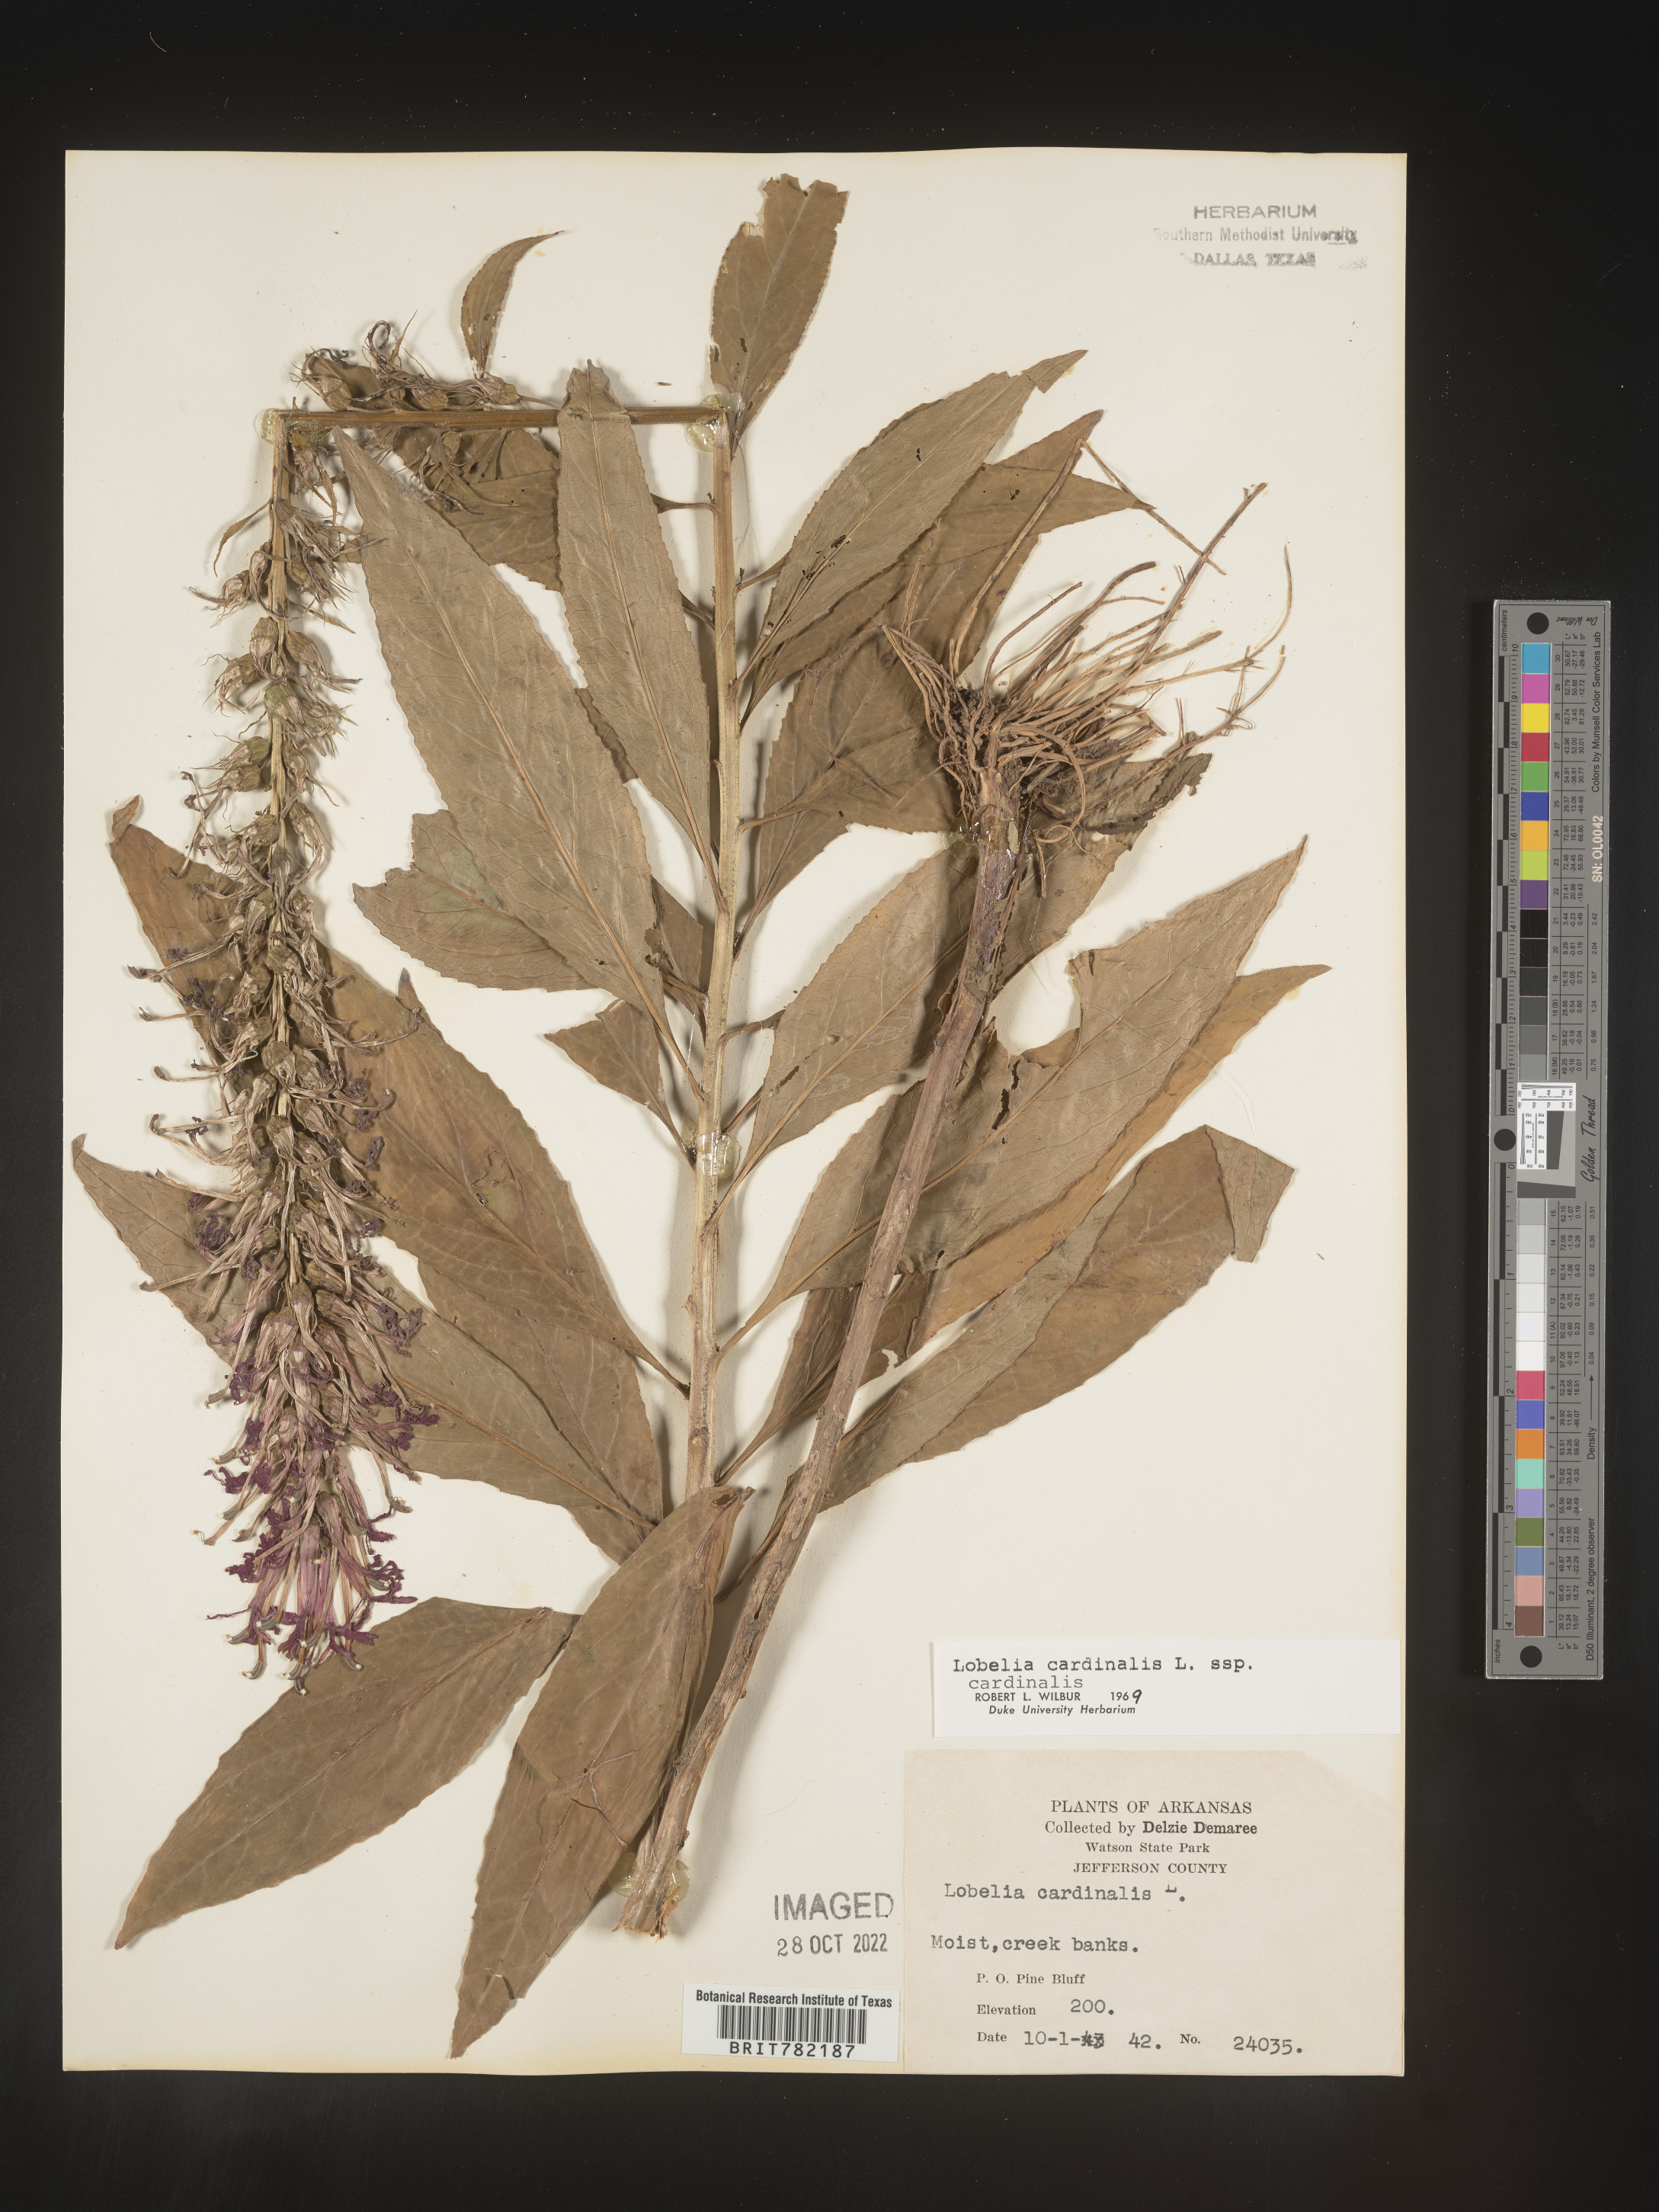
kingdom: Plantae
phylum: Tracheophyta
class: Magnoliopsida
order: Asterales
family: Campanulaceae
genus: Lobelia
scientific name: Lobelia cardinalis
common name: Cardinal flower
